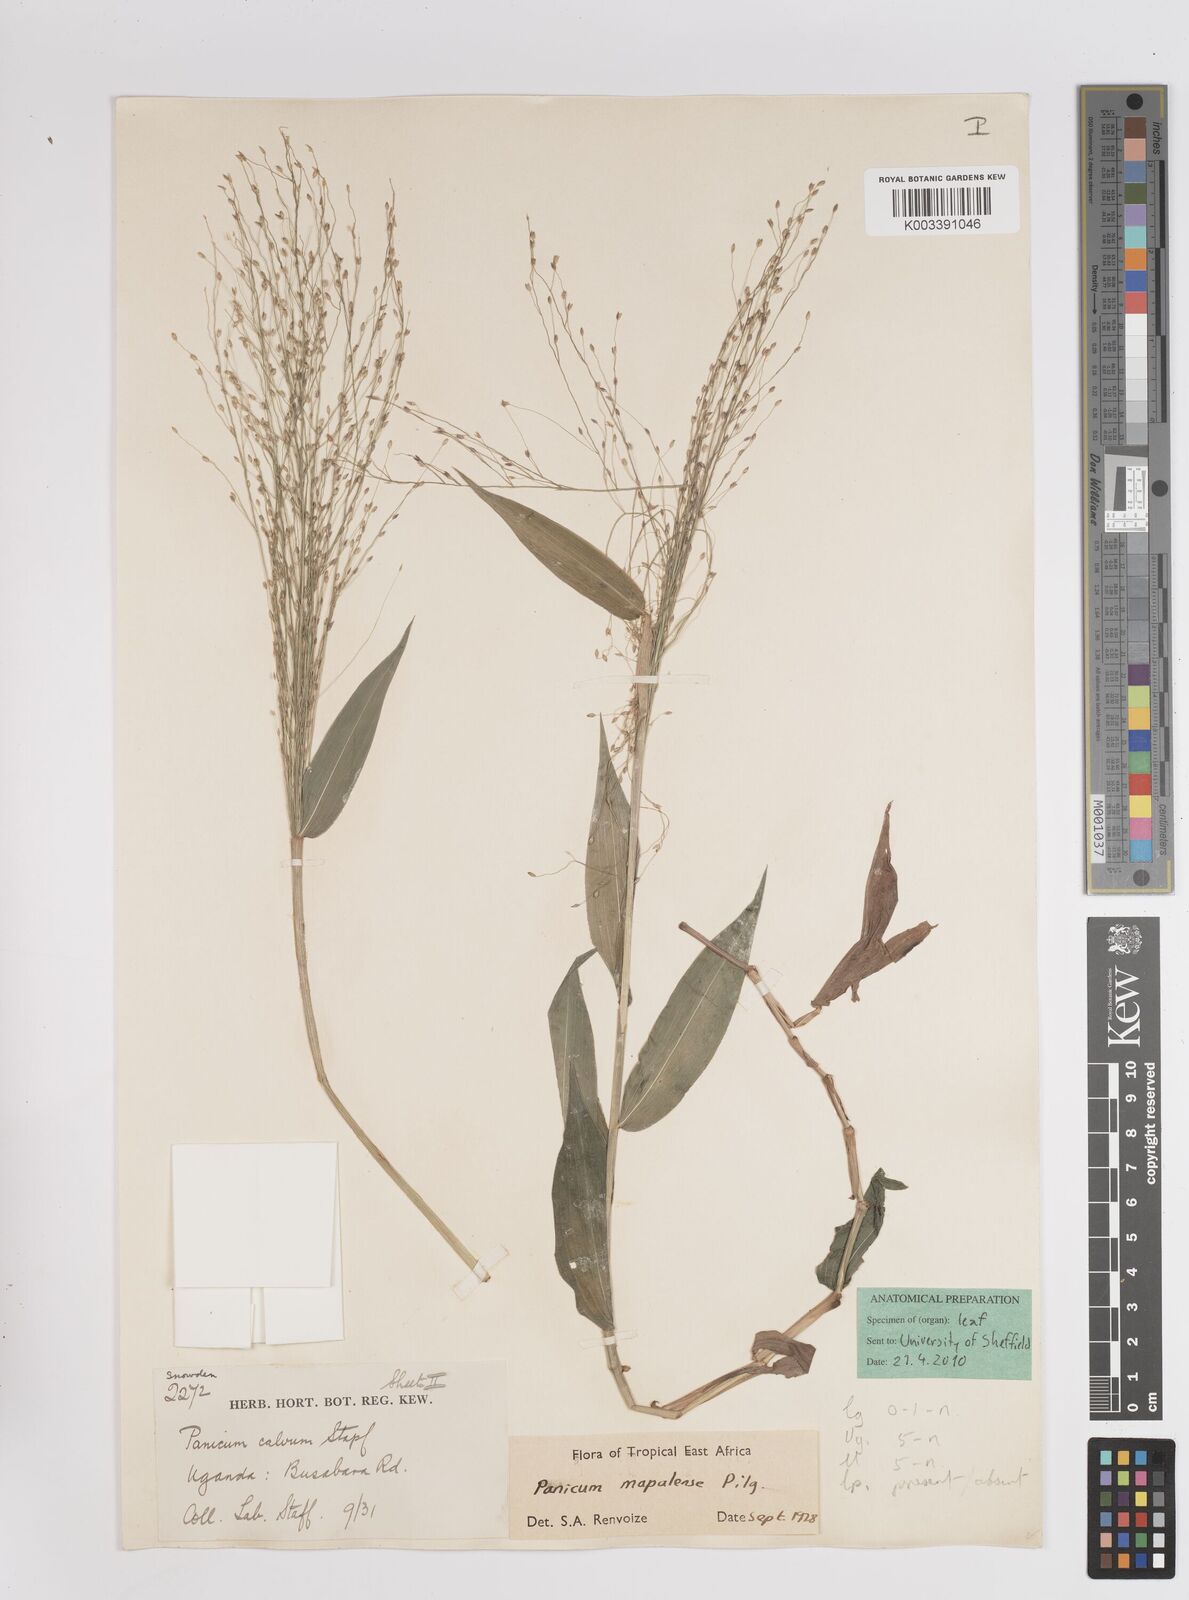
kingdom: Plantae
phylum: Tracheophyta
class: Liliopsida
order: Poales
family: Poaceae
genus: Panicum
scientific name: Panicum mapalense
